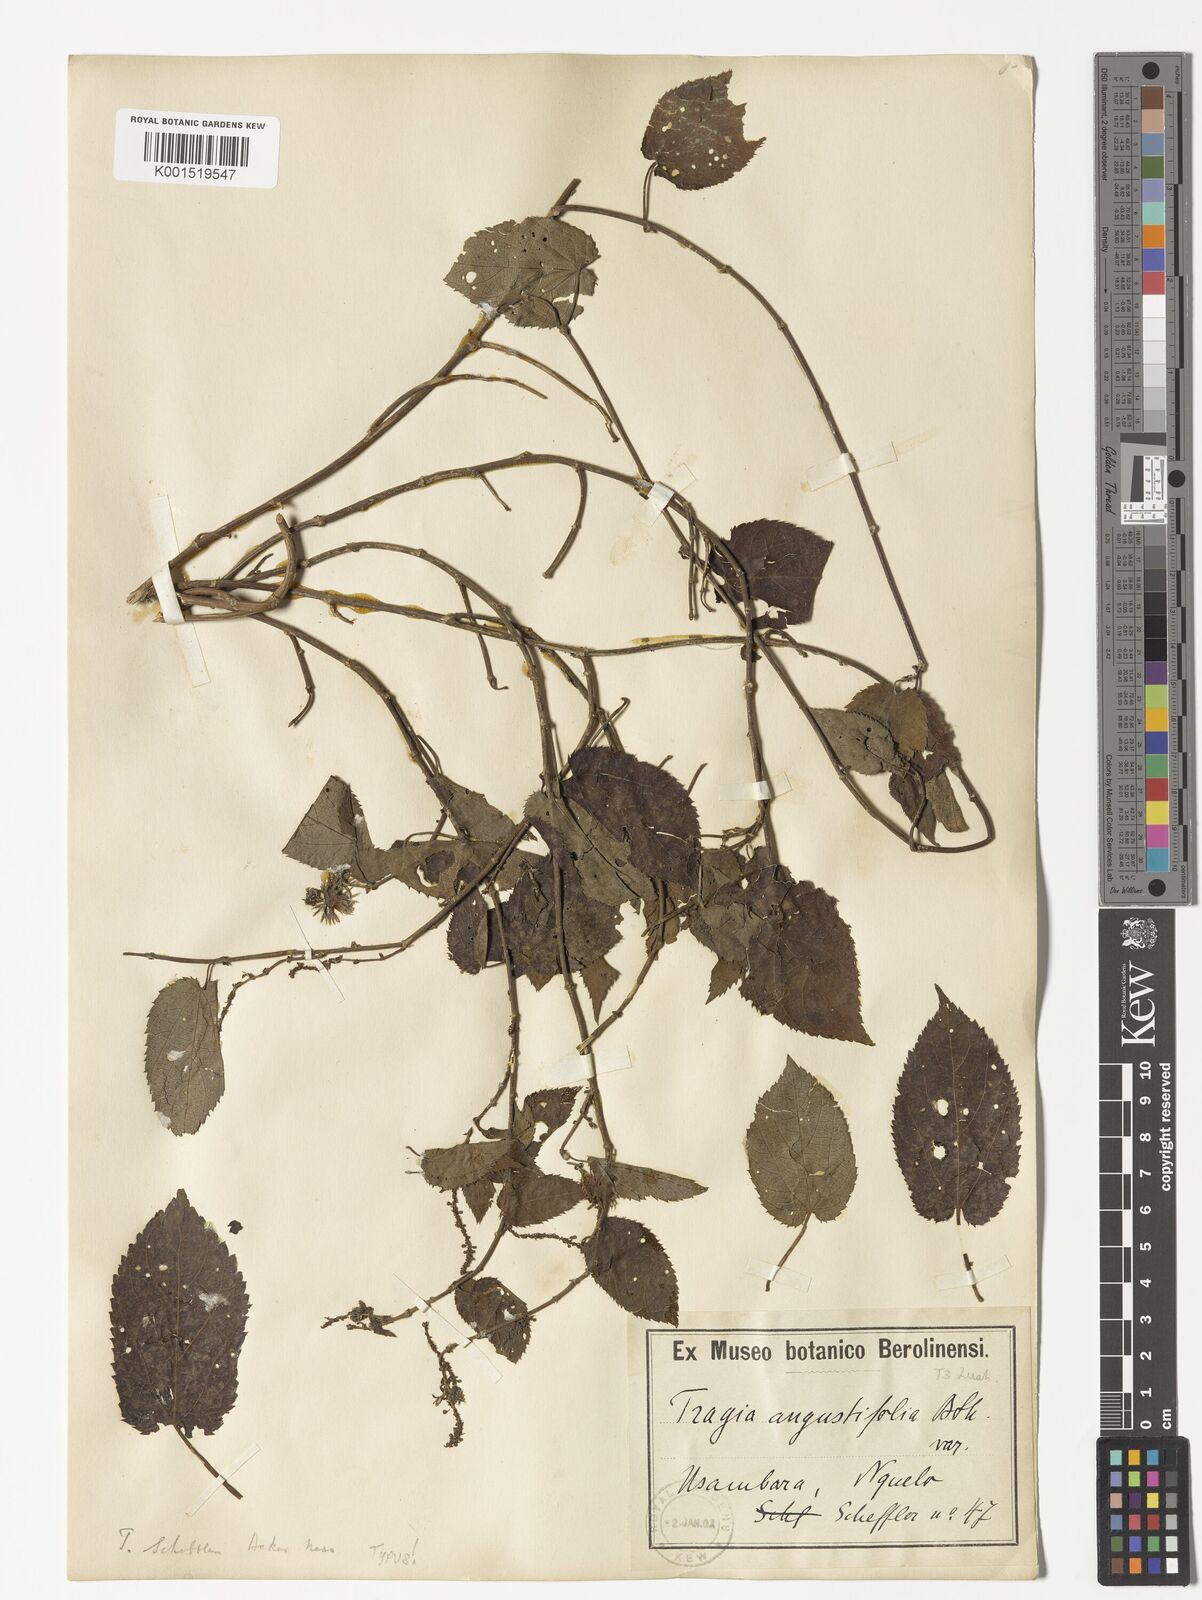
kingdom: Plantae
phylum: Tracheophyta
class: Magnoliopsida
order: Malpighiales
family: Euphorbiaceae
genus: Tragia
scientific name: Tragia vogelii
